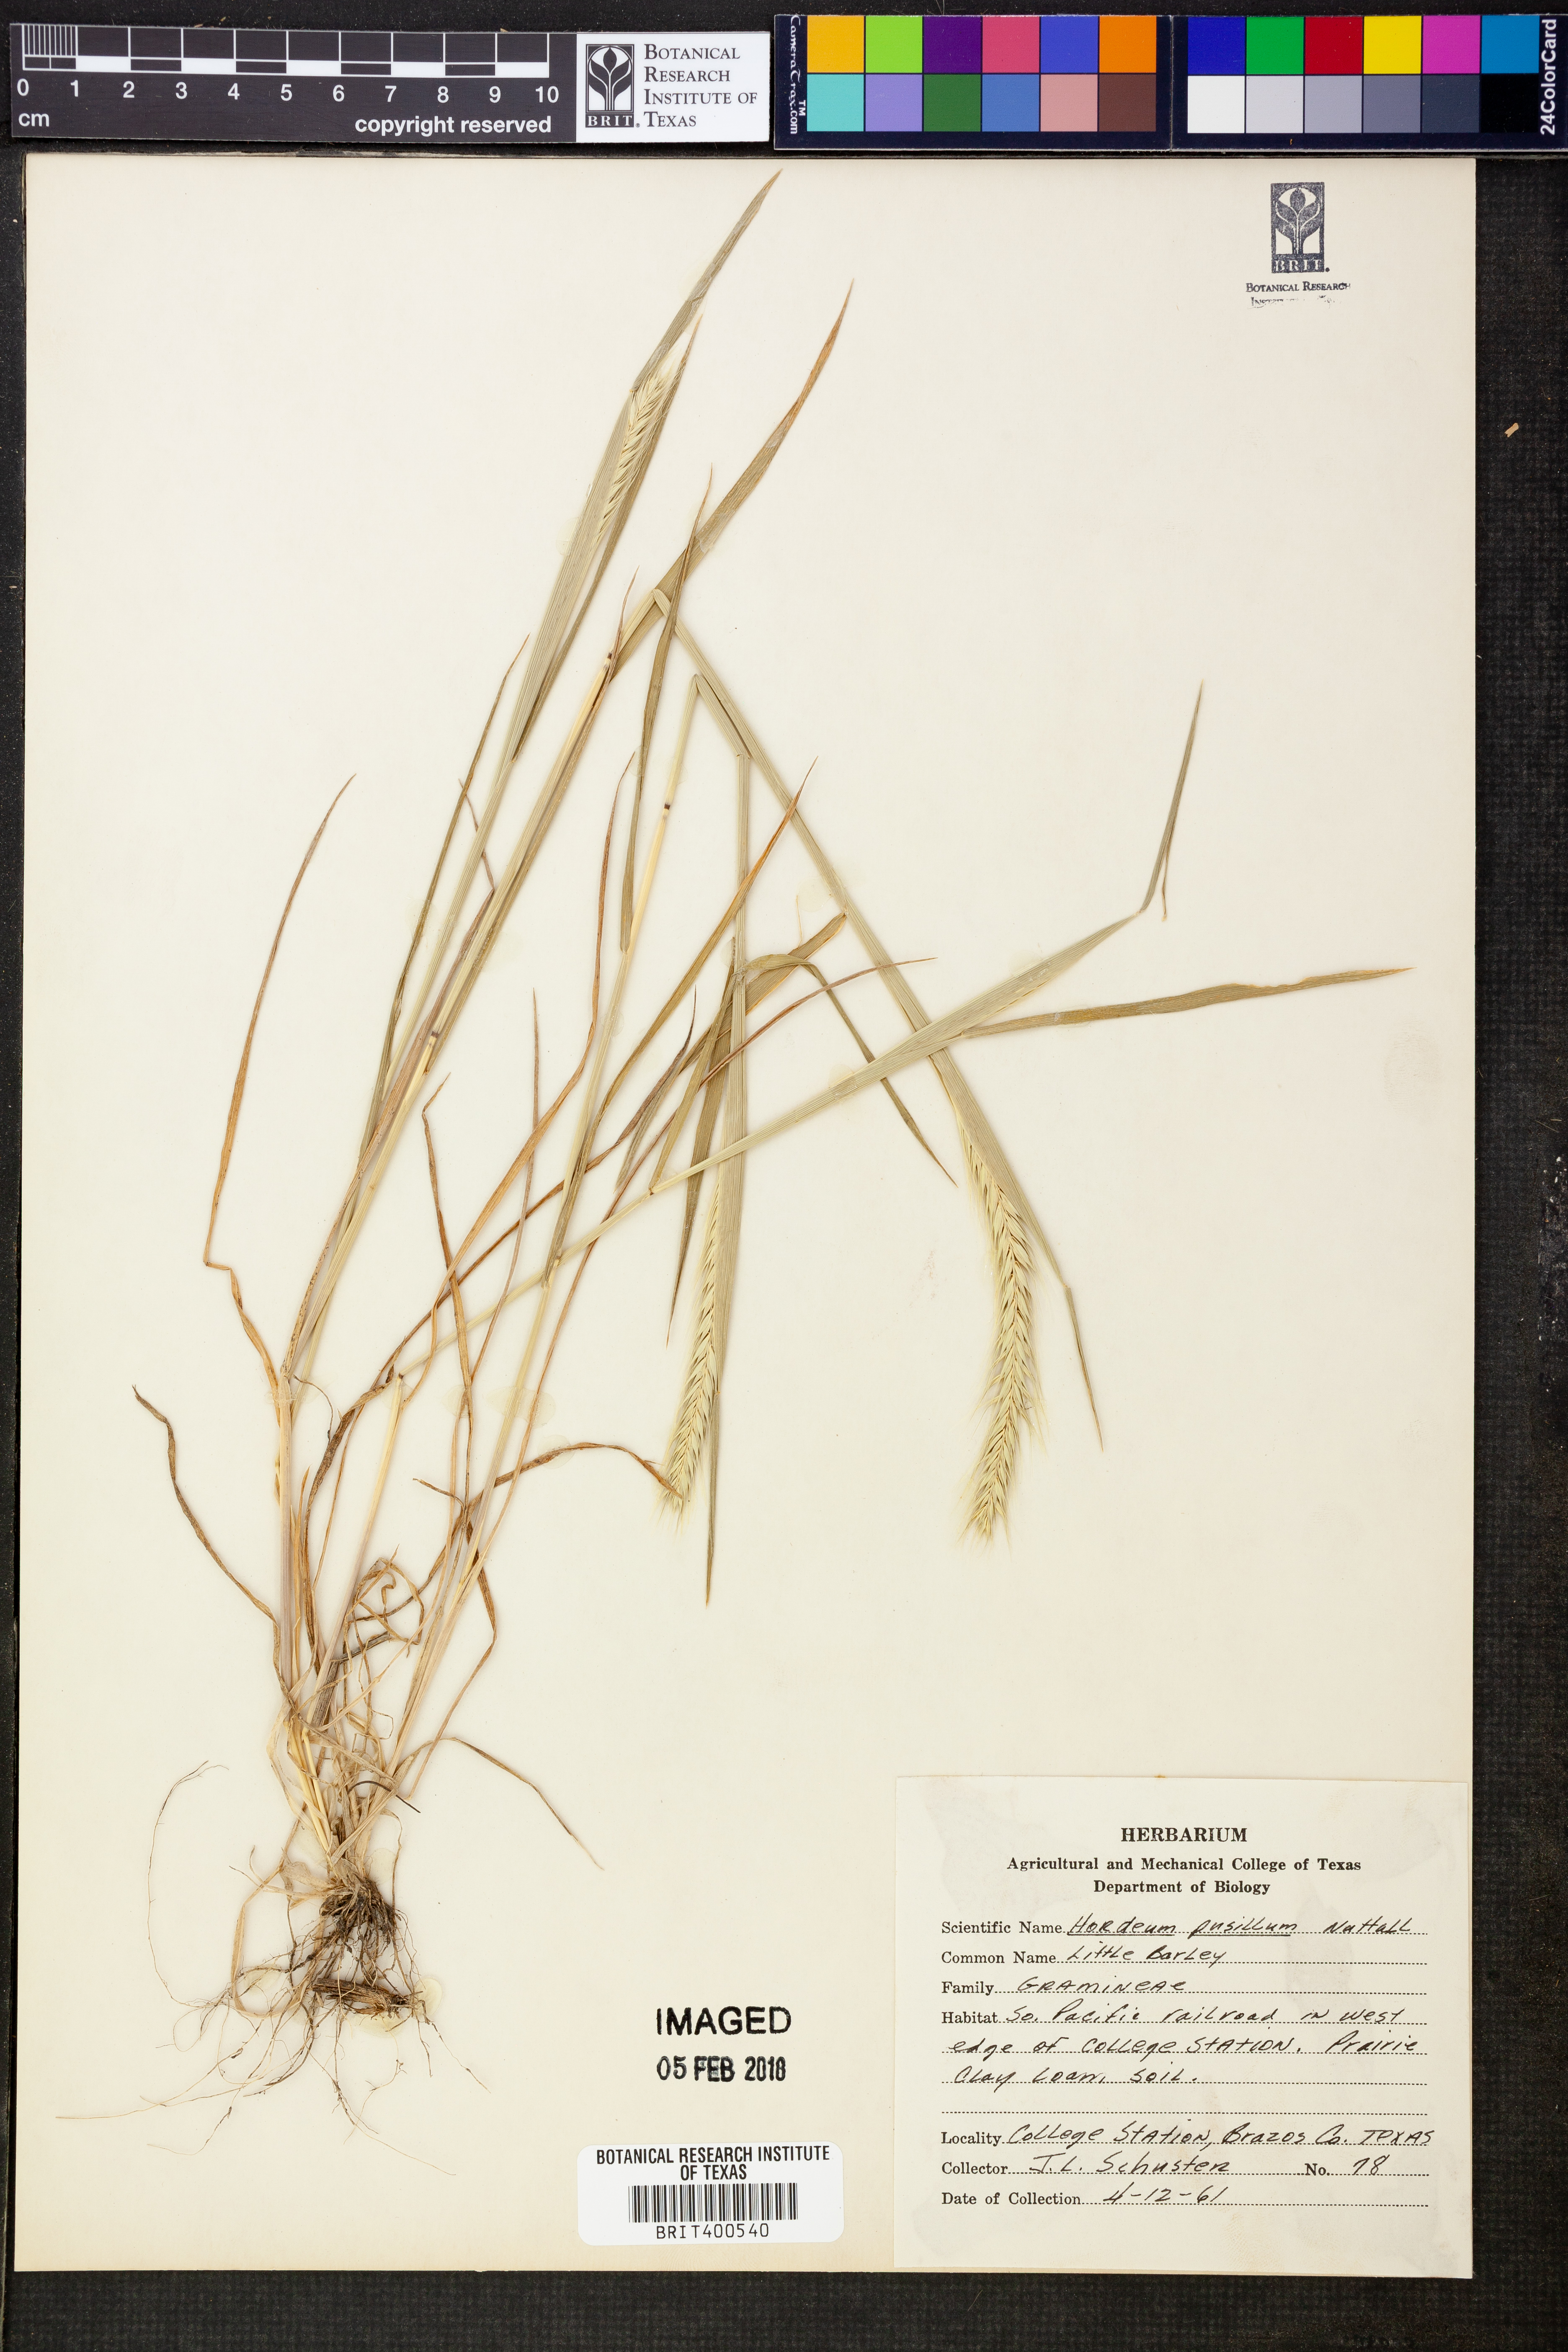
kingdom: Plantae
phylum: Tracheophyta
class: Liliopsida
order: Poales
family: Poaceae
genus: Hordeum
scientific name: Hordeum pusillum
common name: Little barley
